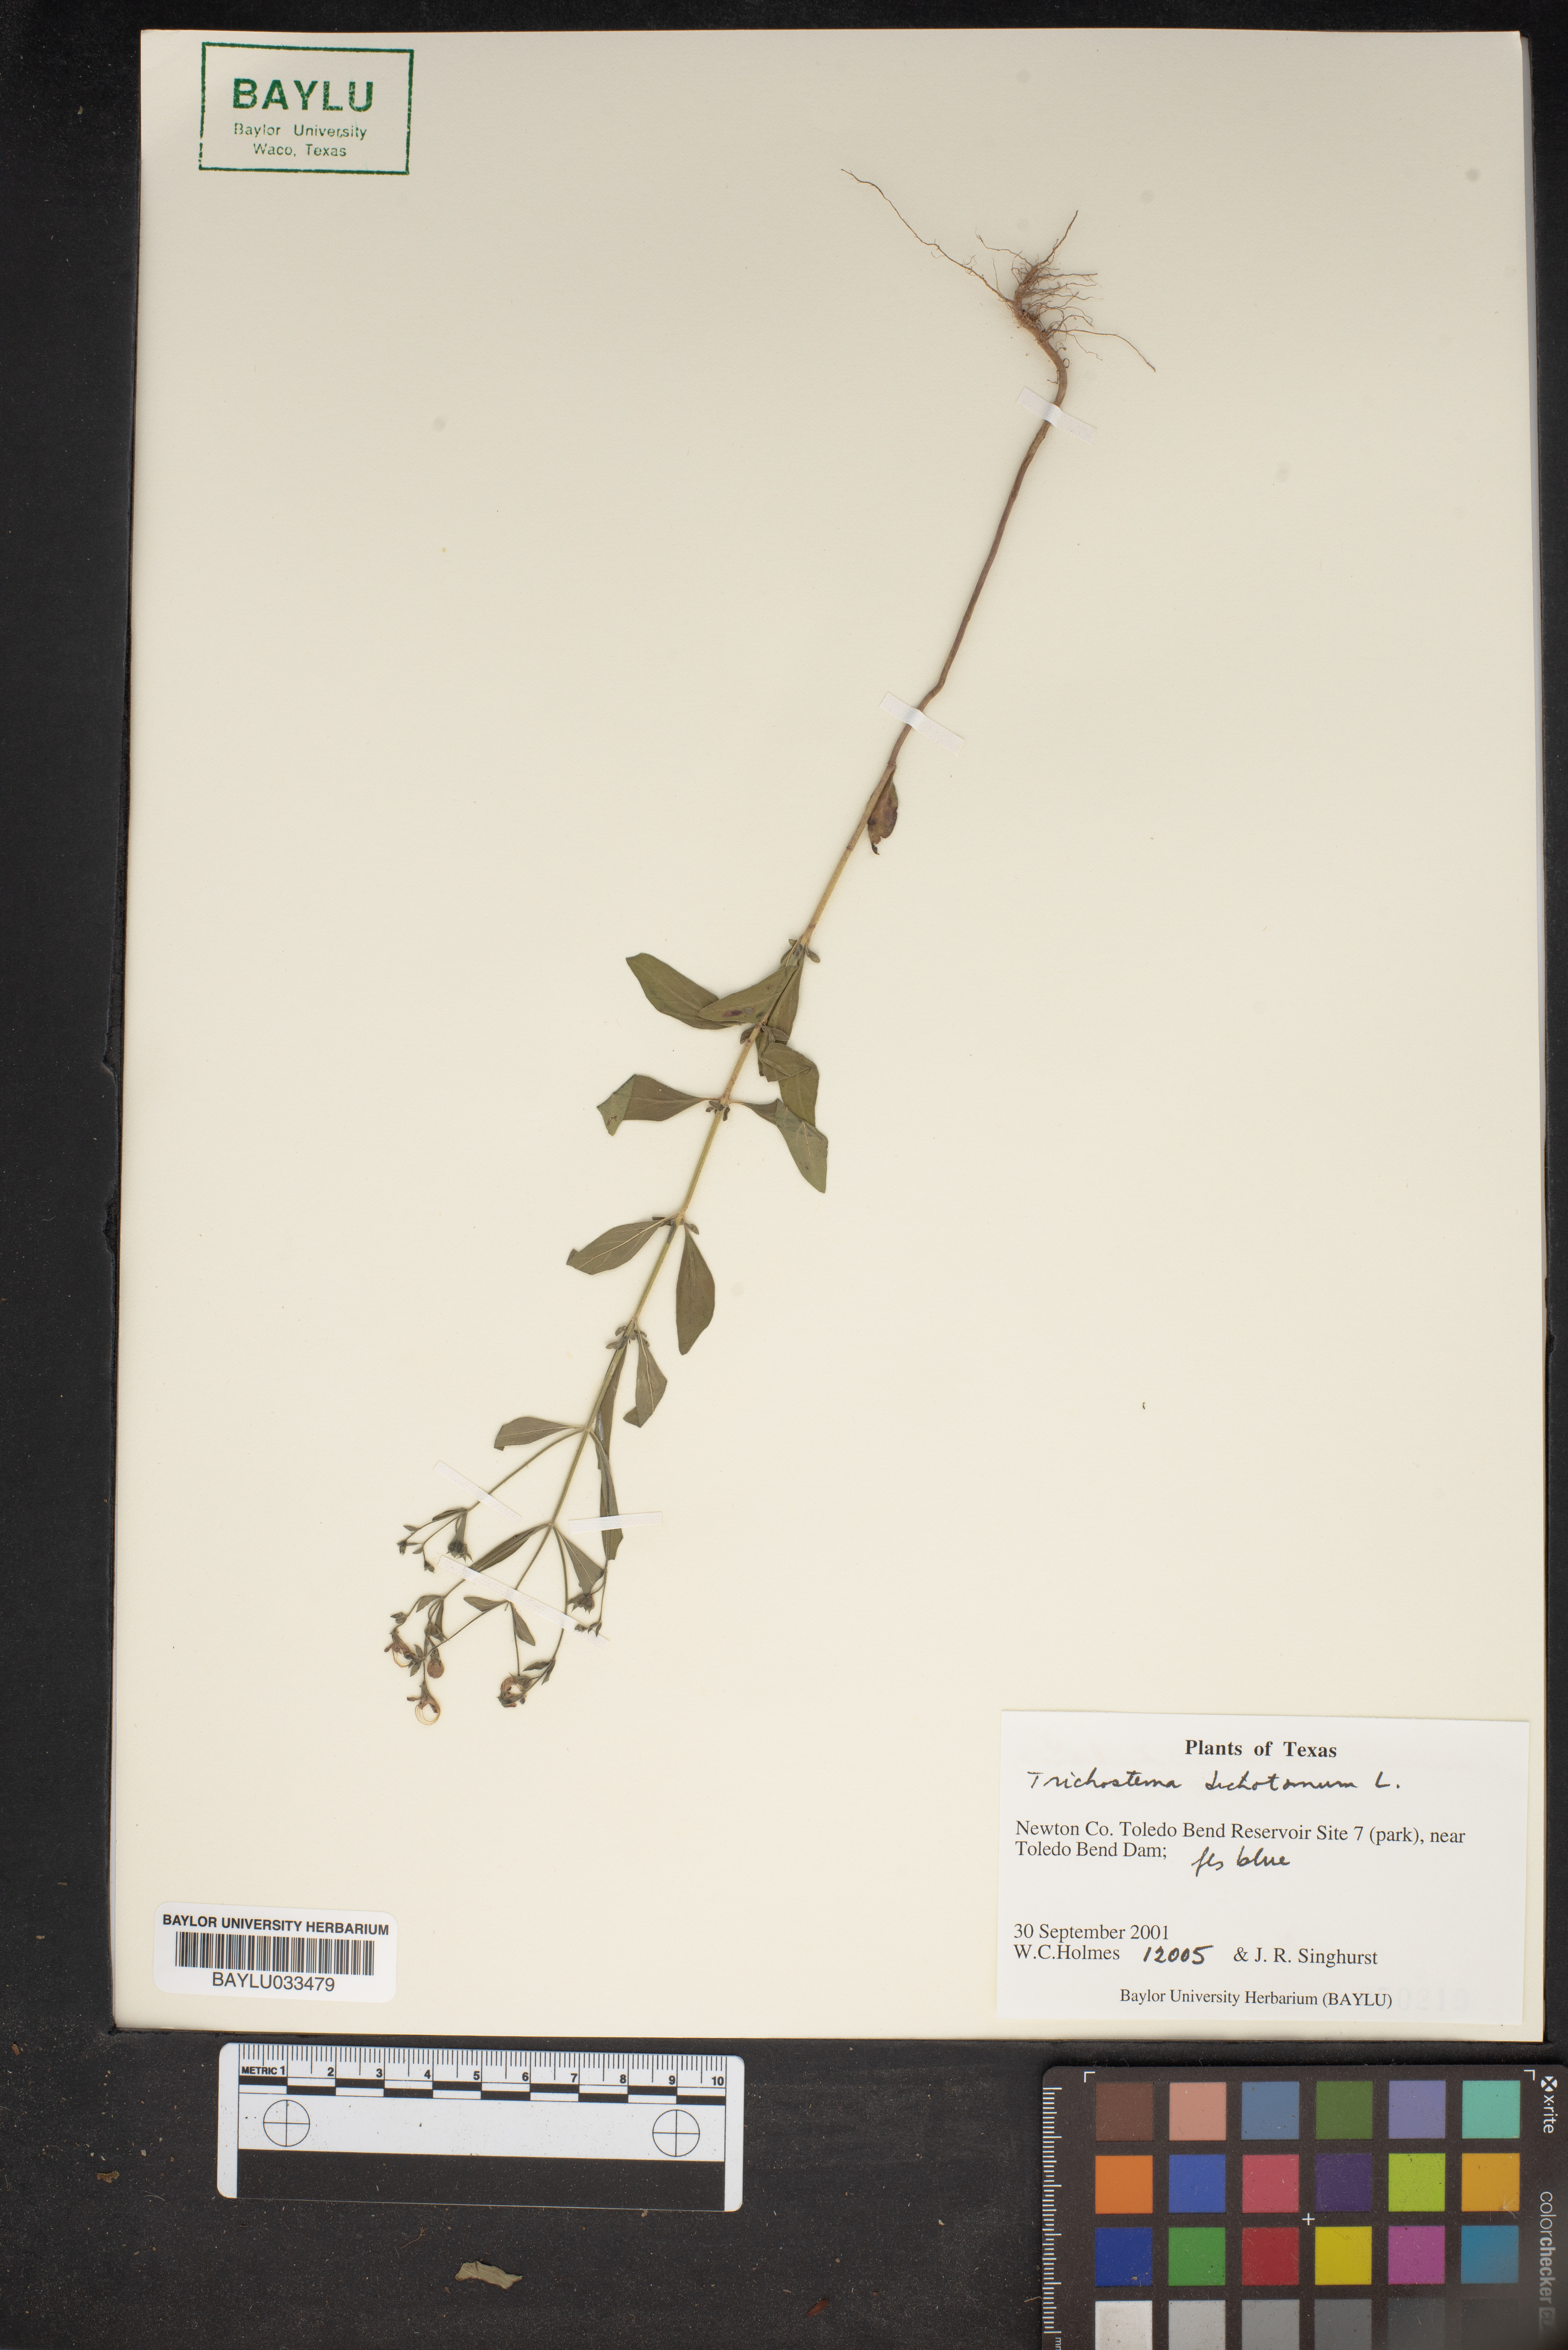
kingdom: Plantae
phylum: Tracheophyta
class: Magnoliopsida
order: Lamiales
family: Lamiaceae
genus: Trichostema
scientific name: Trichostema dichotomum
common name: Bastard pennyroyal
